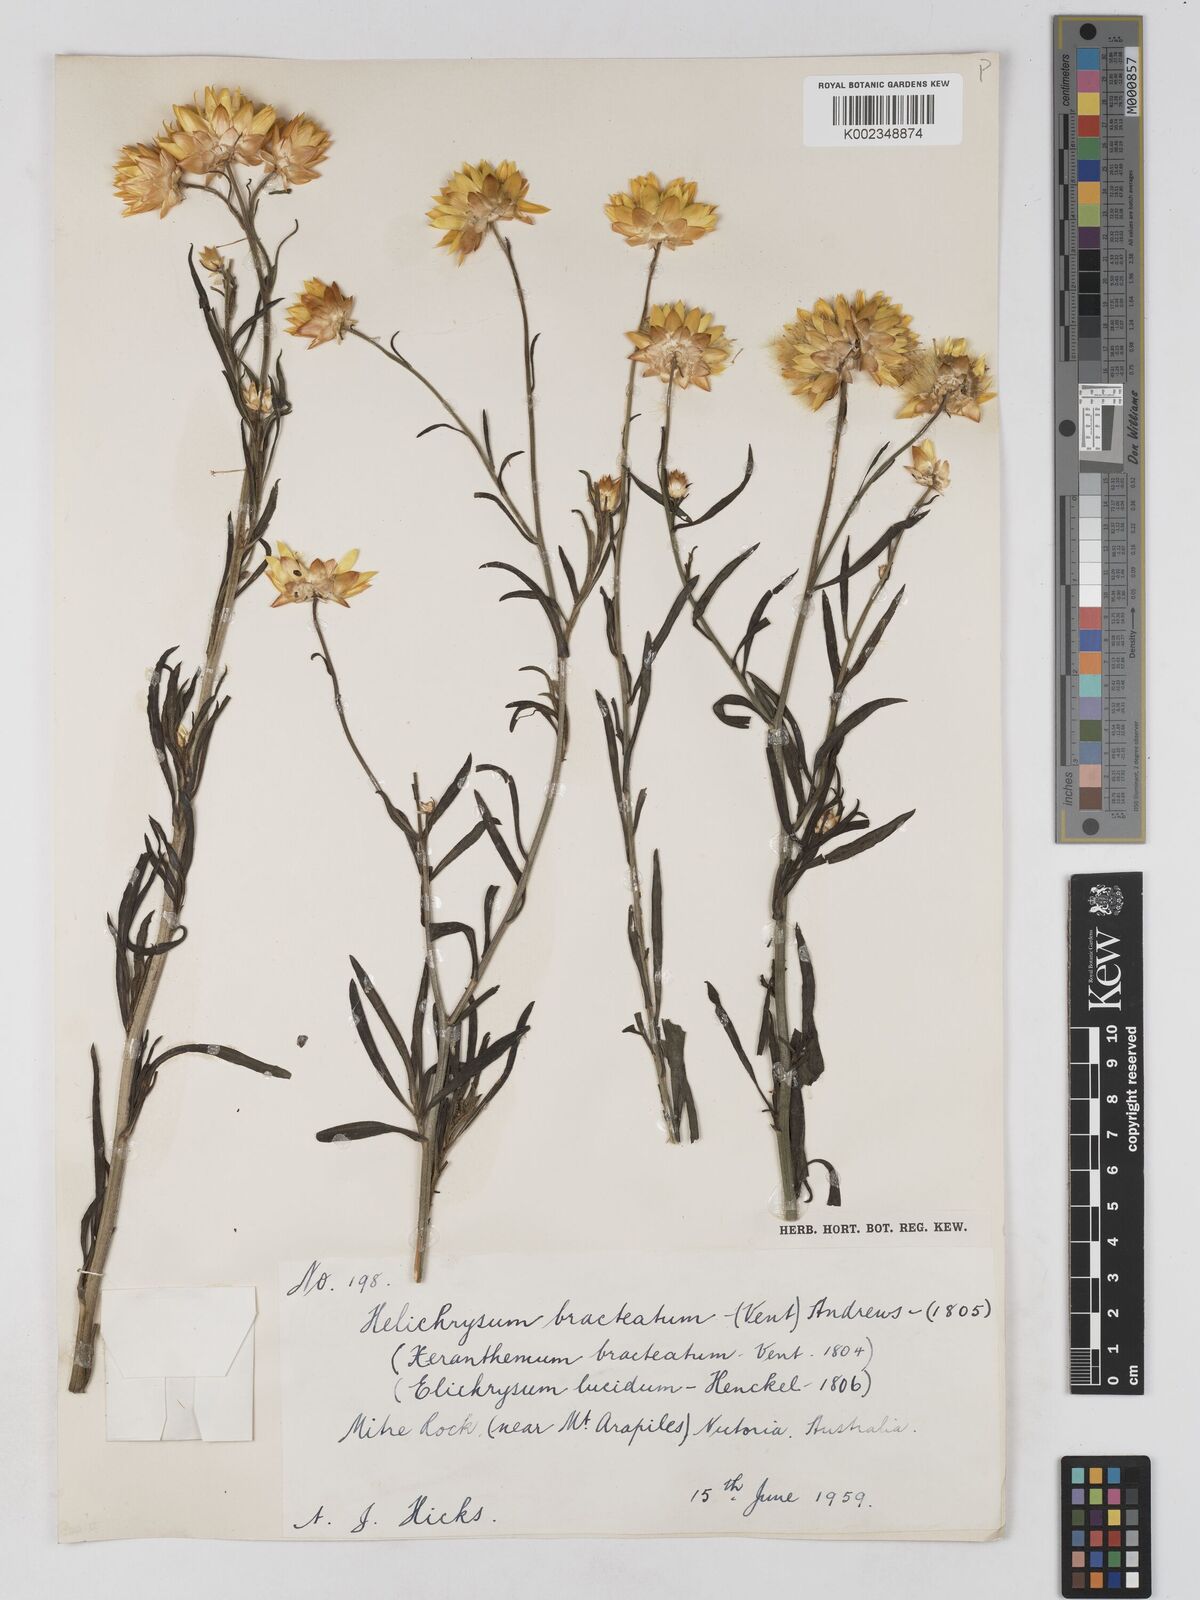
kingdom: Plantae
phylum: Tracheophyta
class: Magnoliopsida
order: Asterales
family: Asteraceae
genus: Xerochrysum
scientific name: Xerochrysum bracteatum
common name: Bracted strawflower
